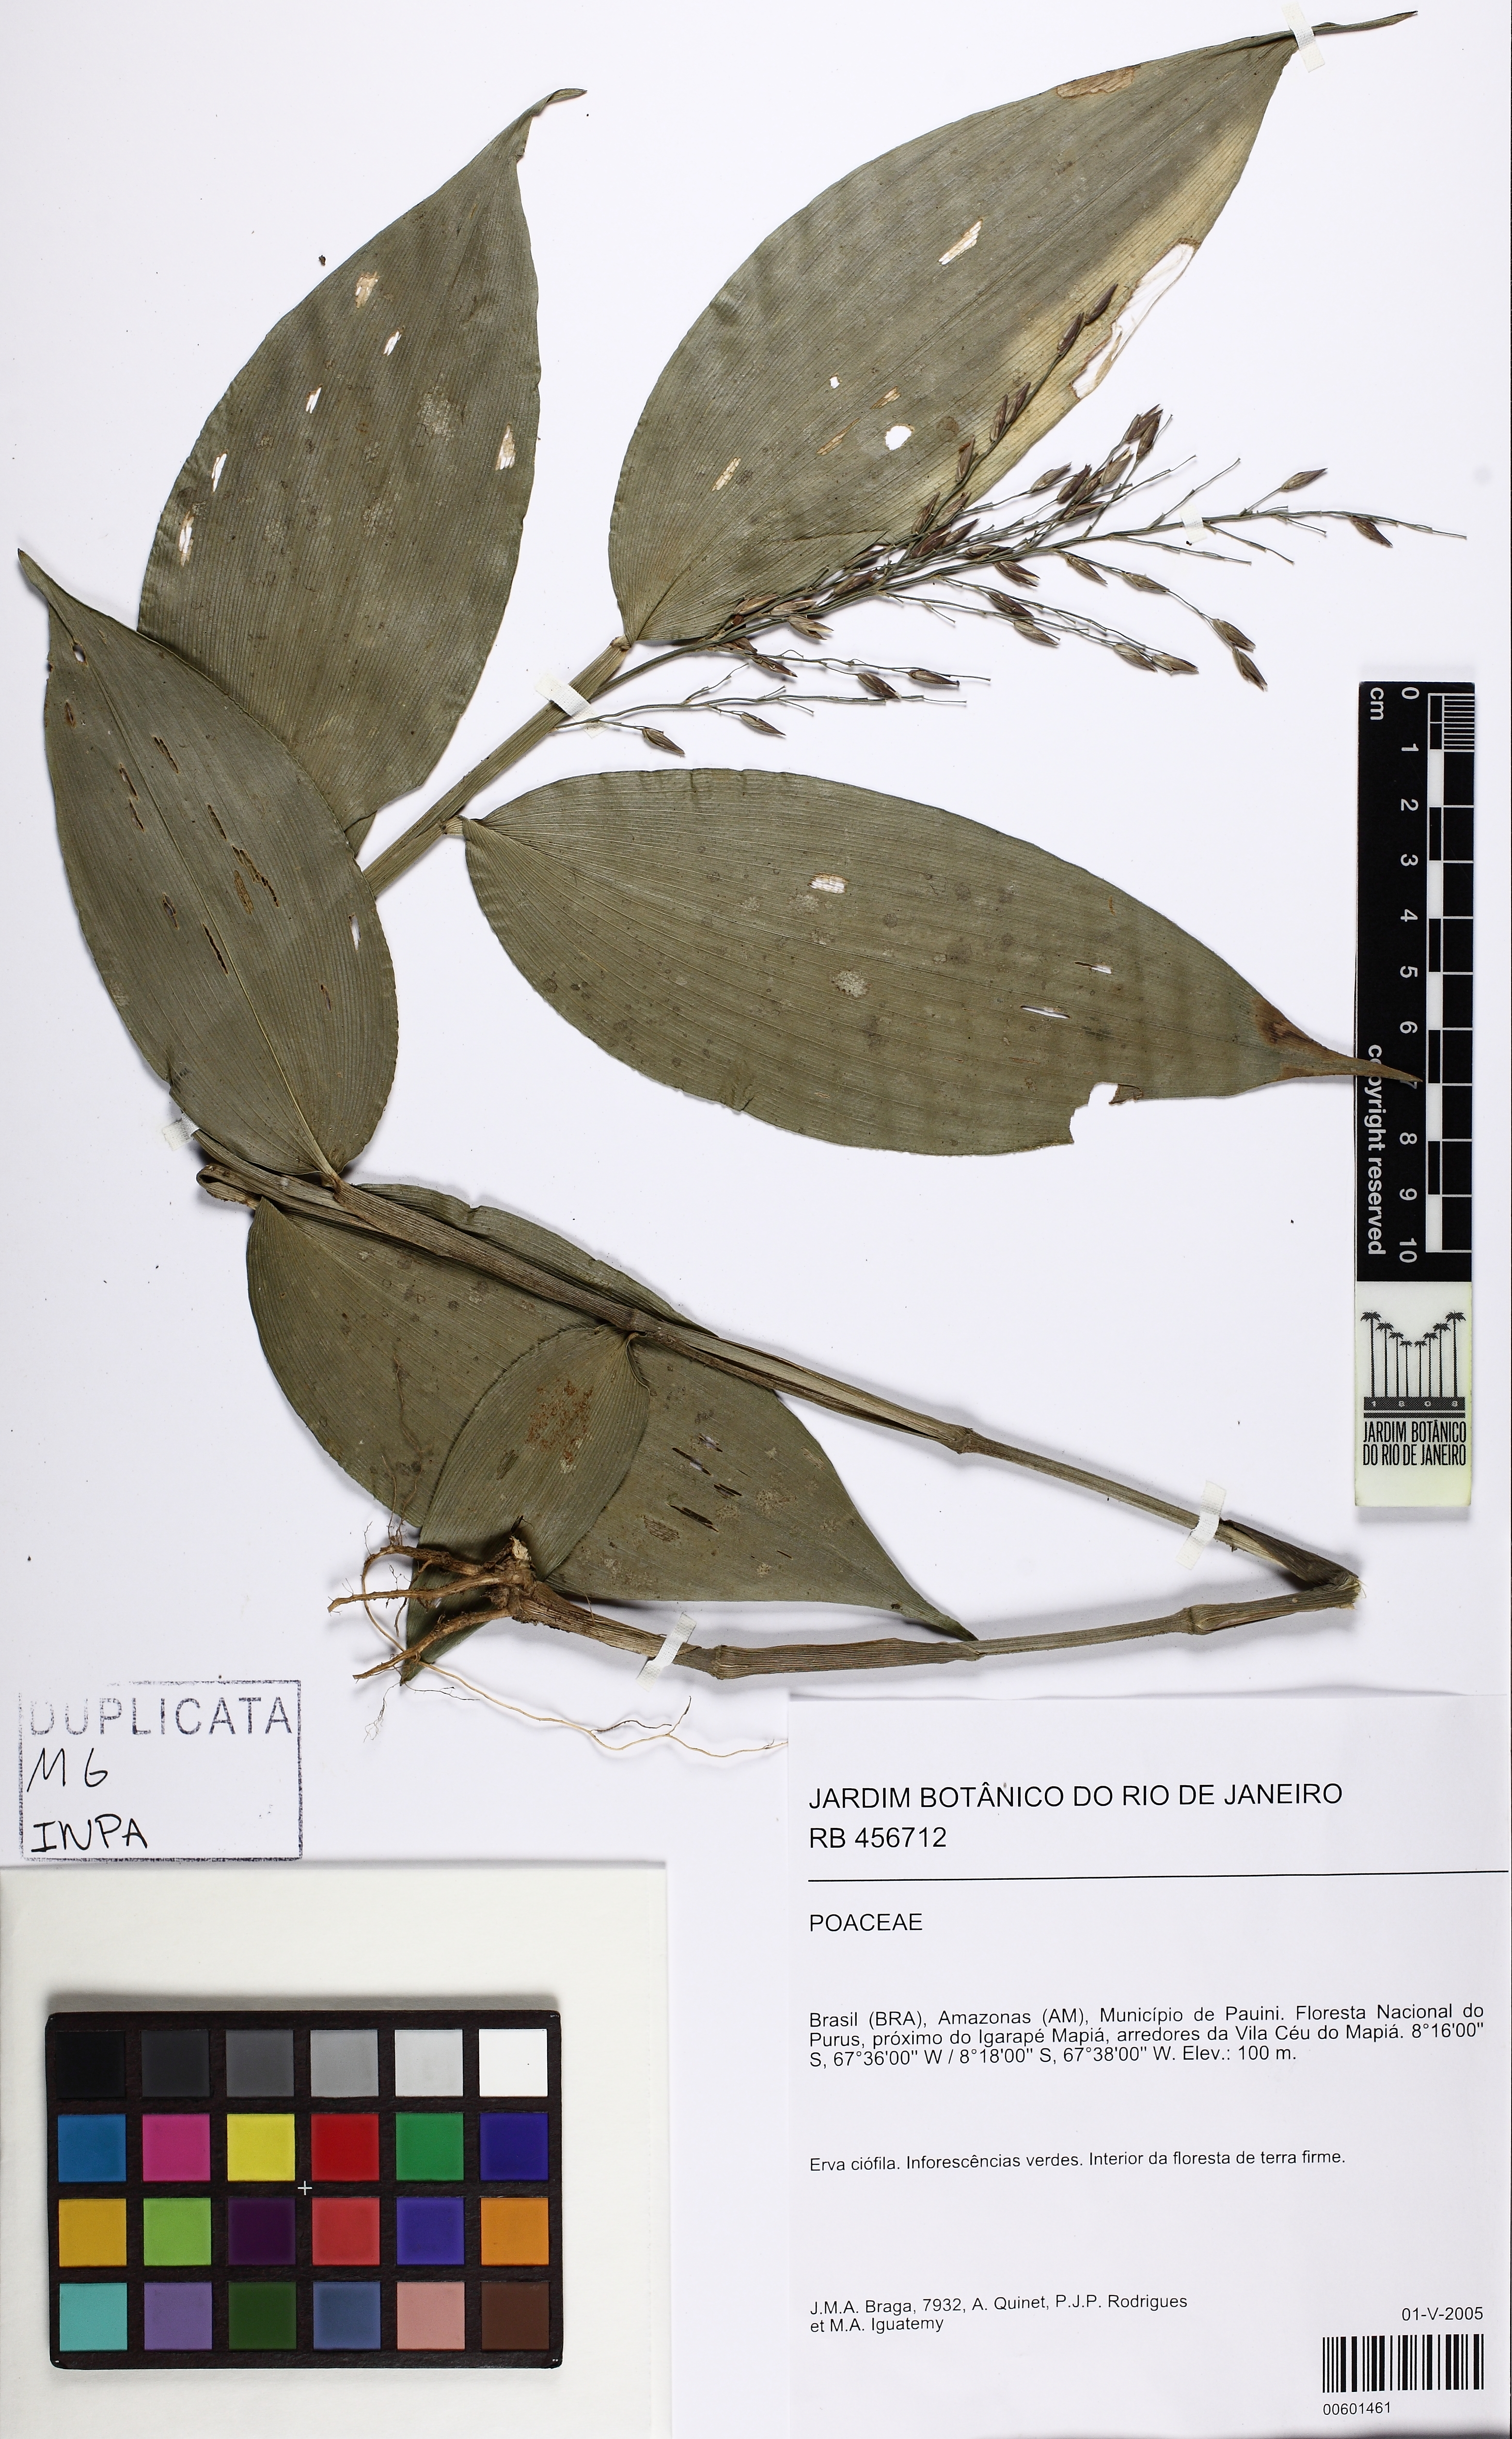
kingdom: Plantae
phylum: Tracheophyta
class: Liliopsida
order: Poales
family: Poaceae
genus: Ichnanthus
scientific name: Ichnanthus panicoides
